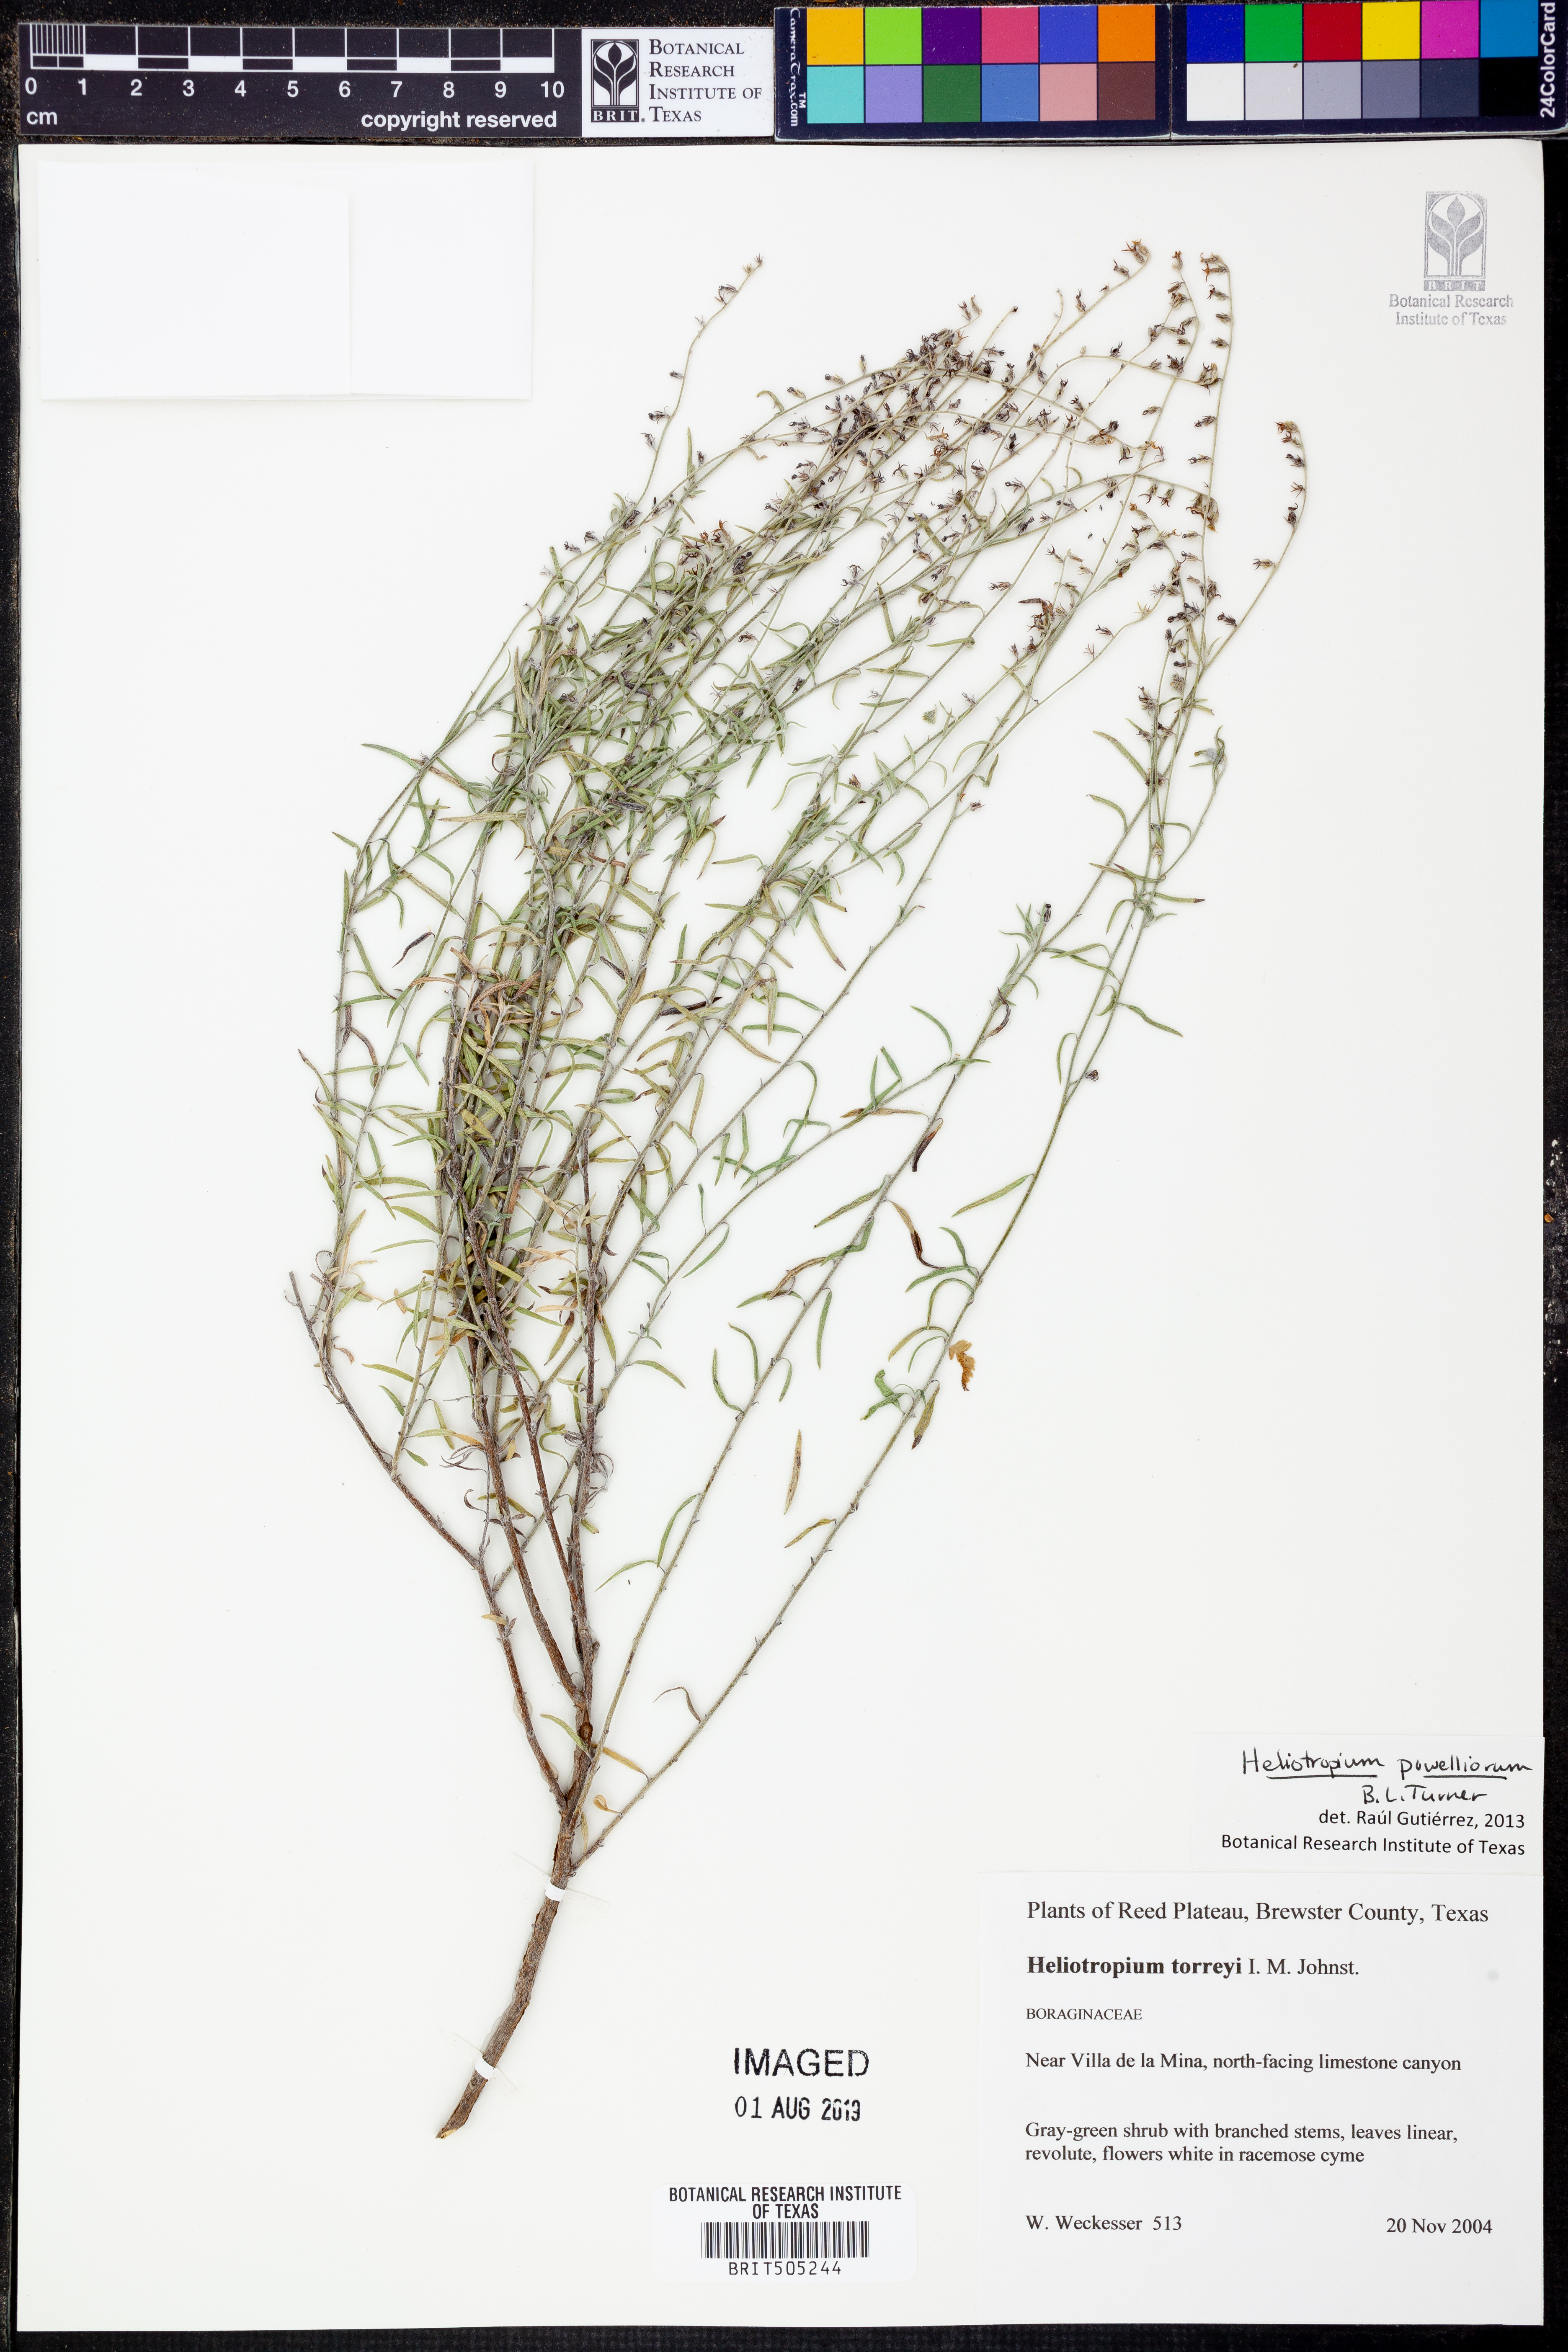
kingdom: Plantae
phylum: Tracheophyta
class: Magnoliopsida
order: Boraginales
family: Heliotropiaceae
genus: Euploca
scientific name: Euploca powelliorum
